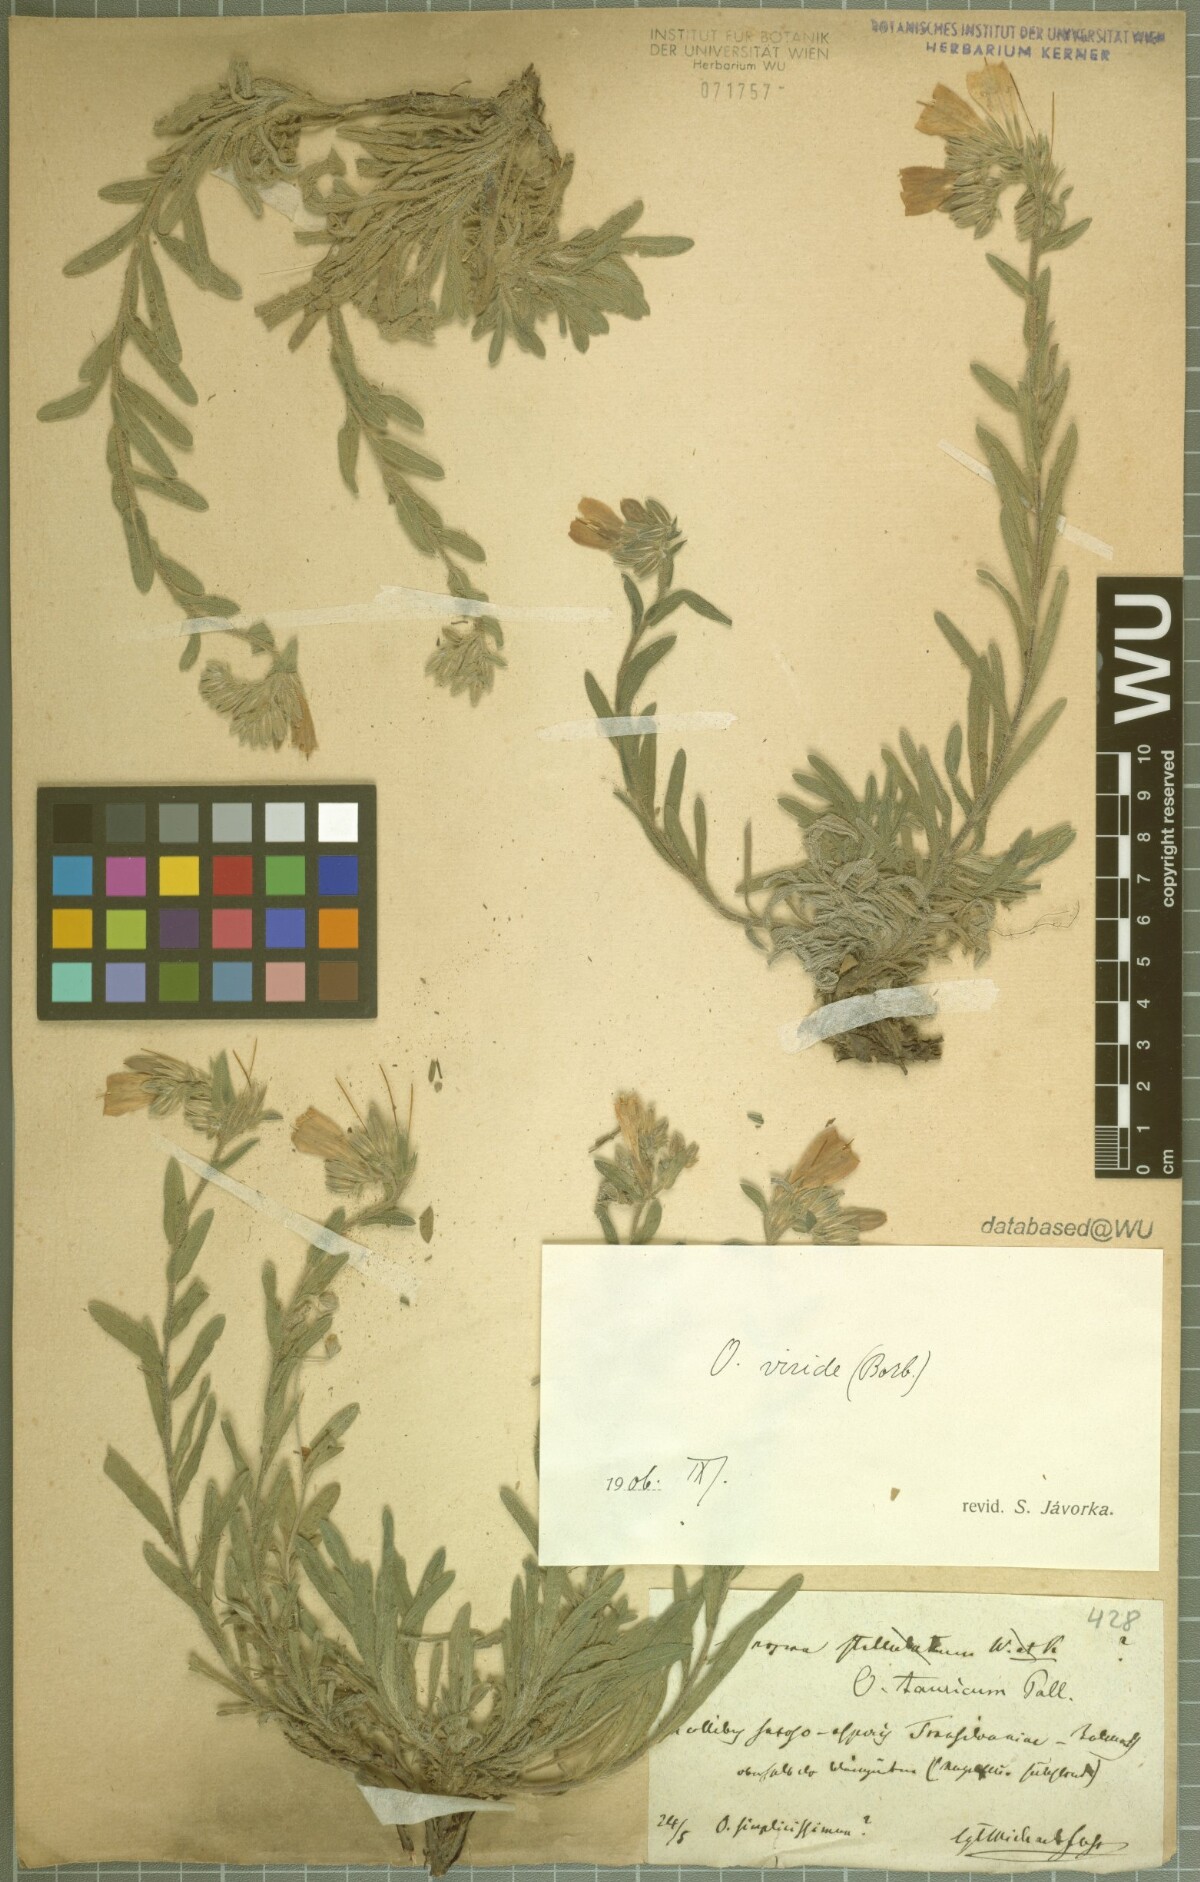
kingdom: Plantae
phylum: Tracheophyta
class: Magnoliopsida
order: Boraginales
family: Boraginaceae
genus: Onosma
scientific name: Onosma viridis
